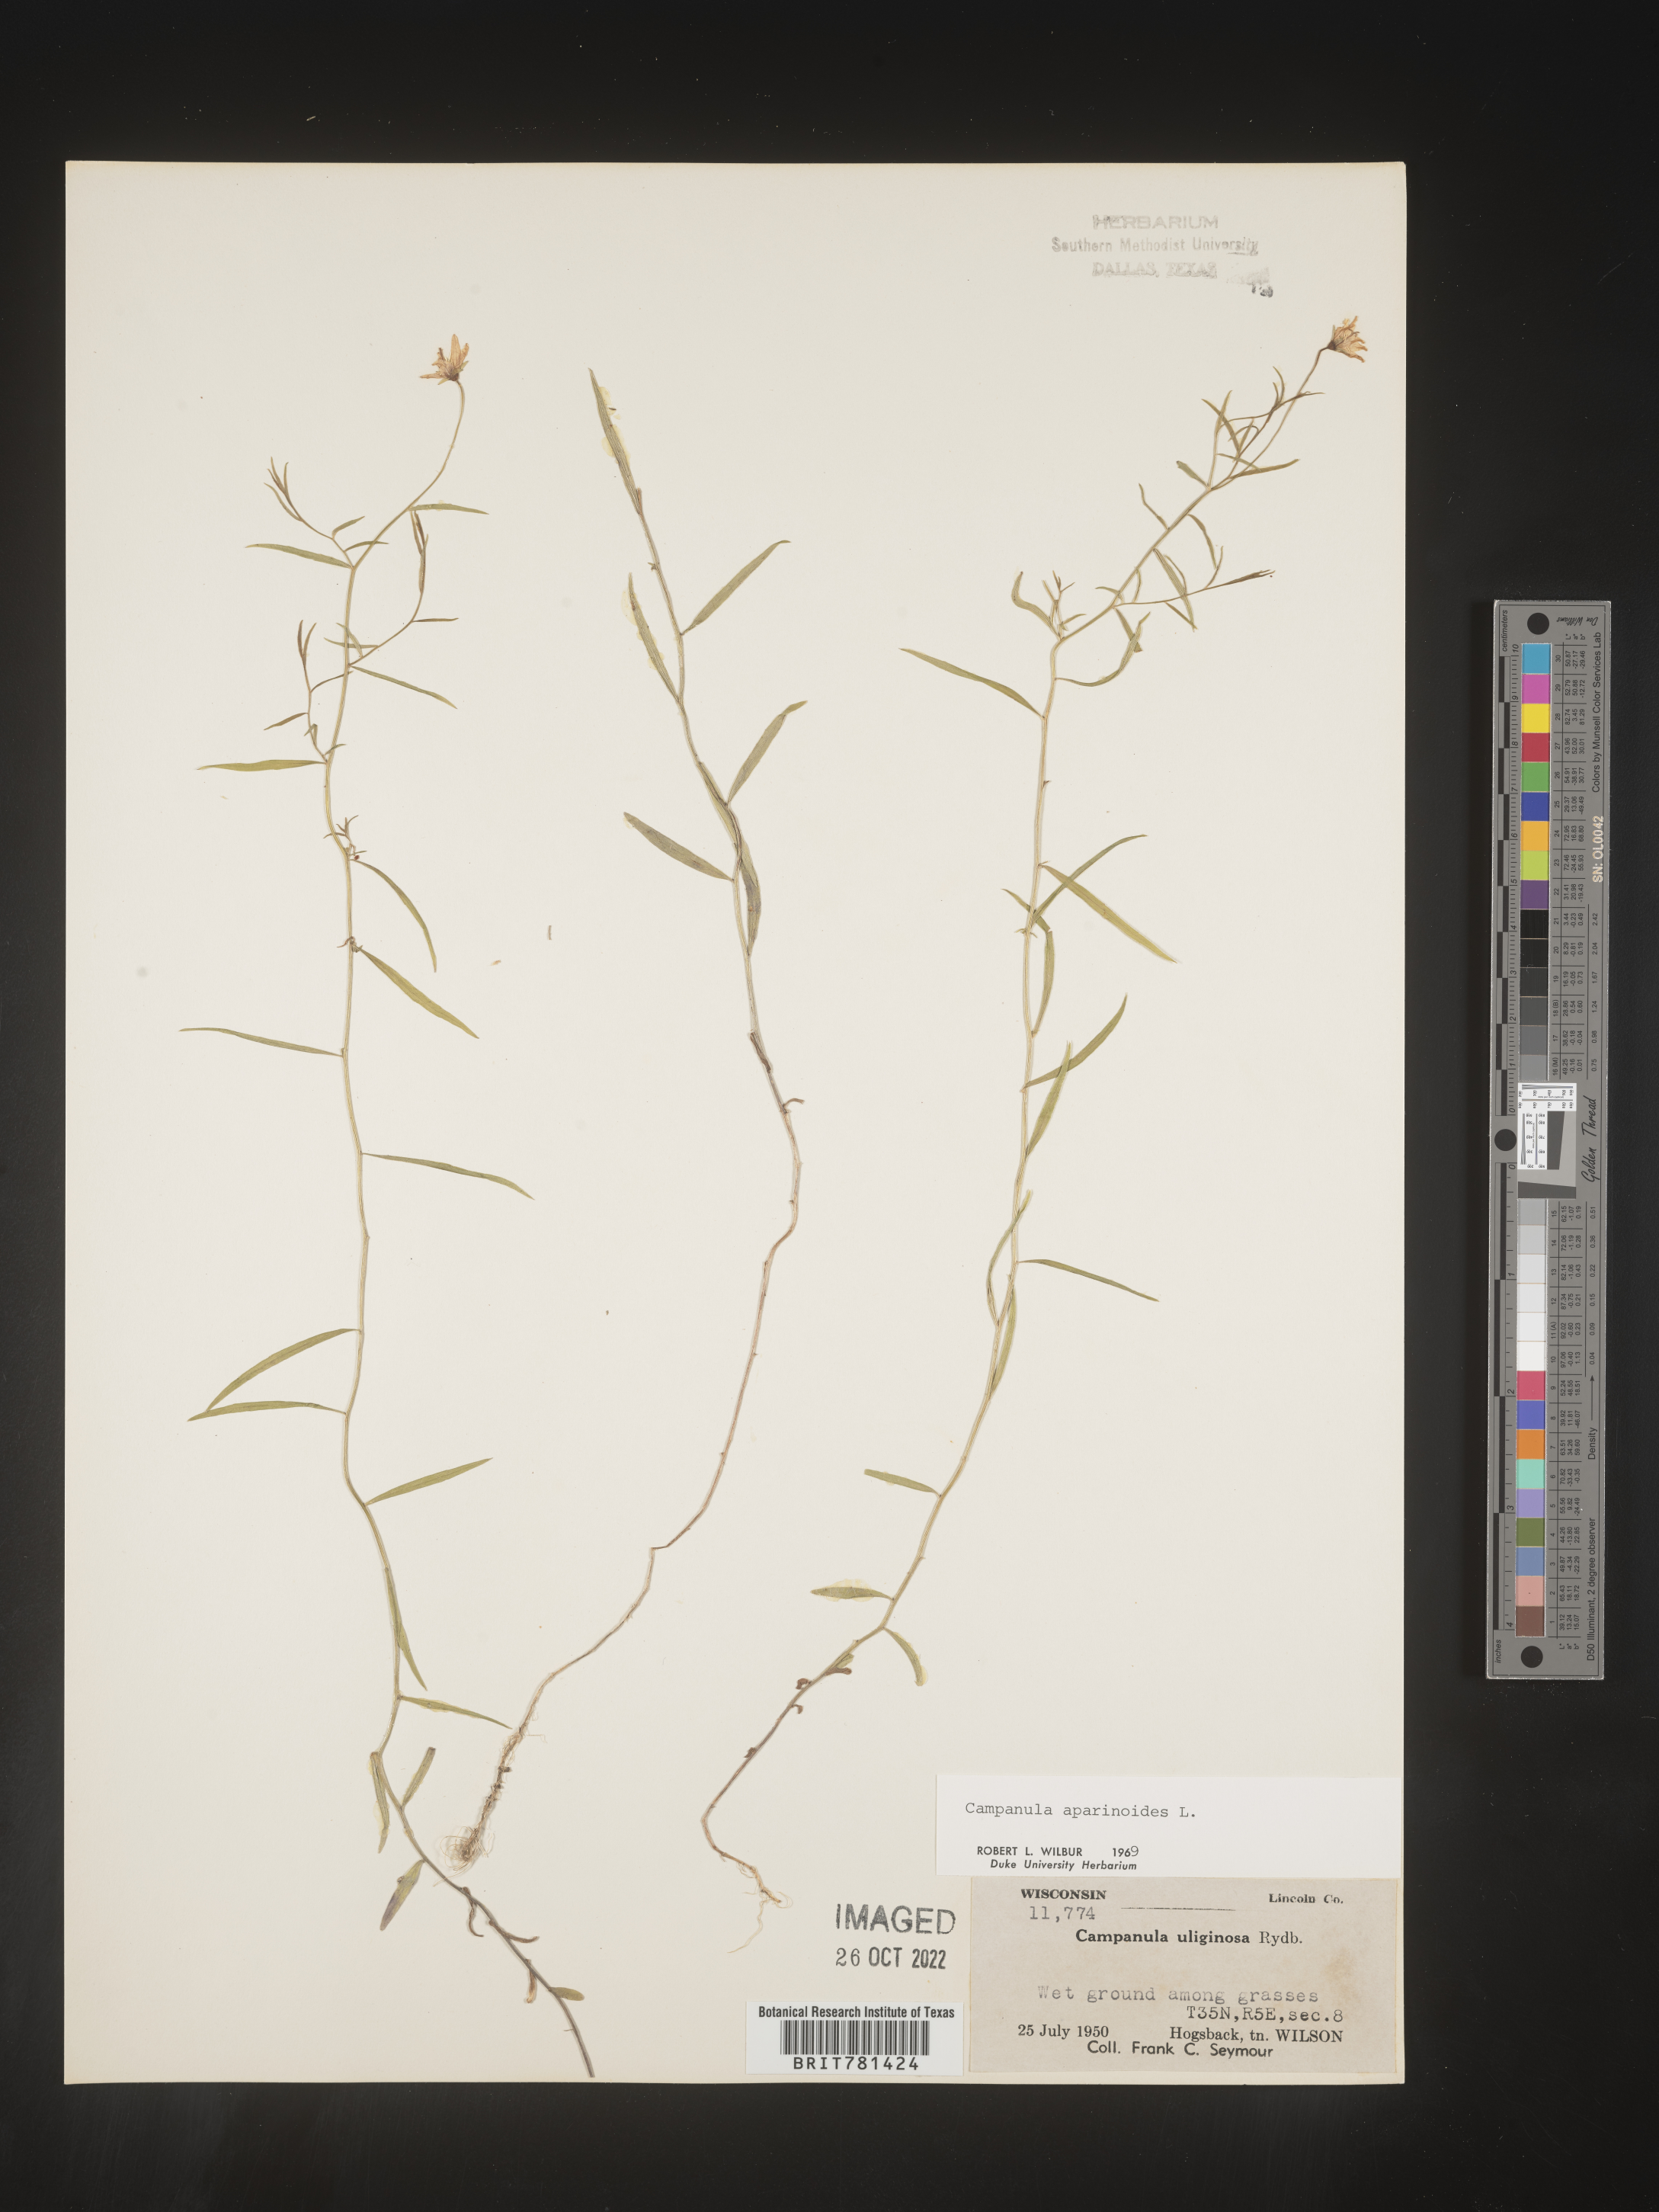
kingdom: Plantae
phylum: Tracheophyta
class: Magnoliopsida
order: Asterales
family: Campanulaceae
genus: Palustricodon
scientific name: Palustricodon aparinoides
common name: Bedstraw bellflower
